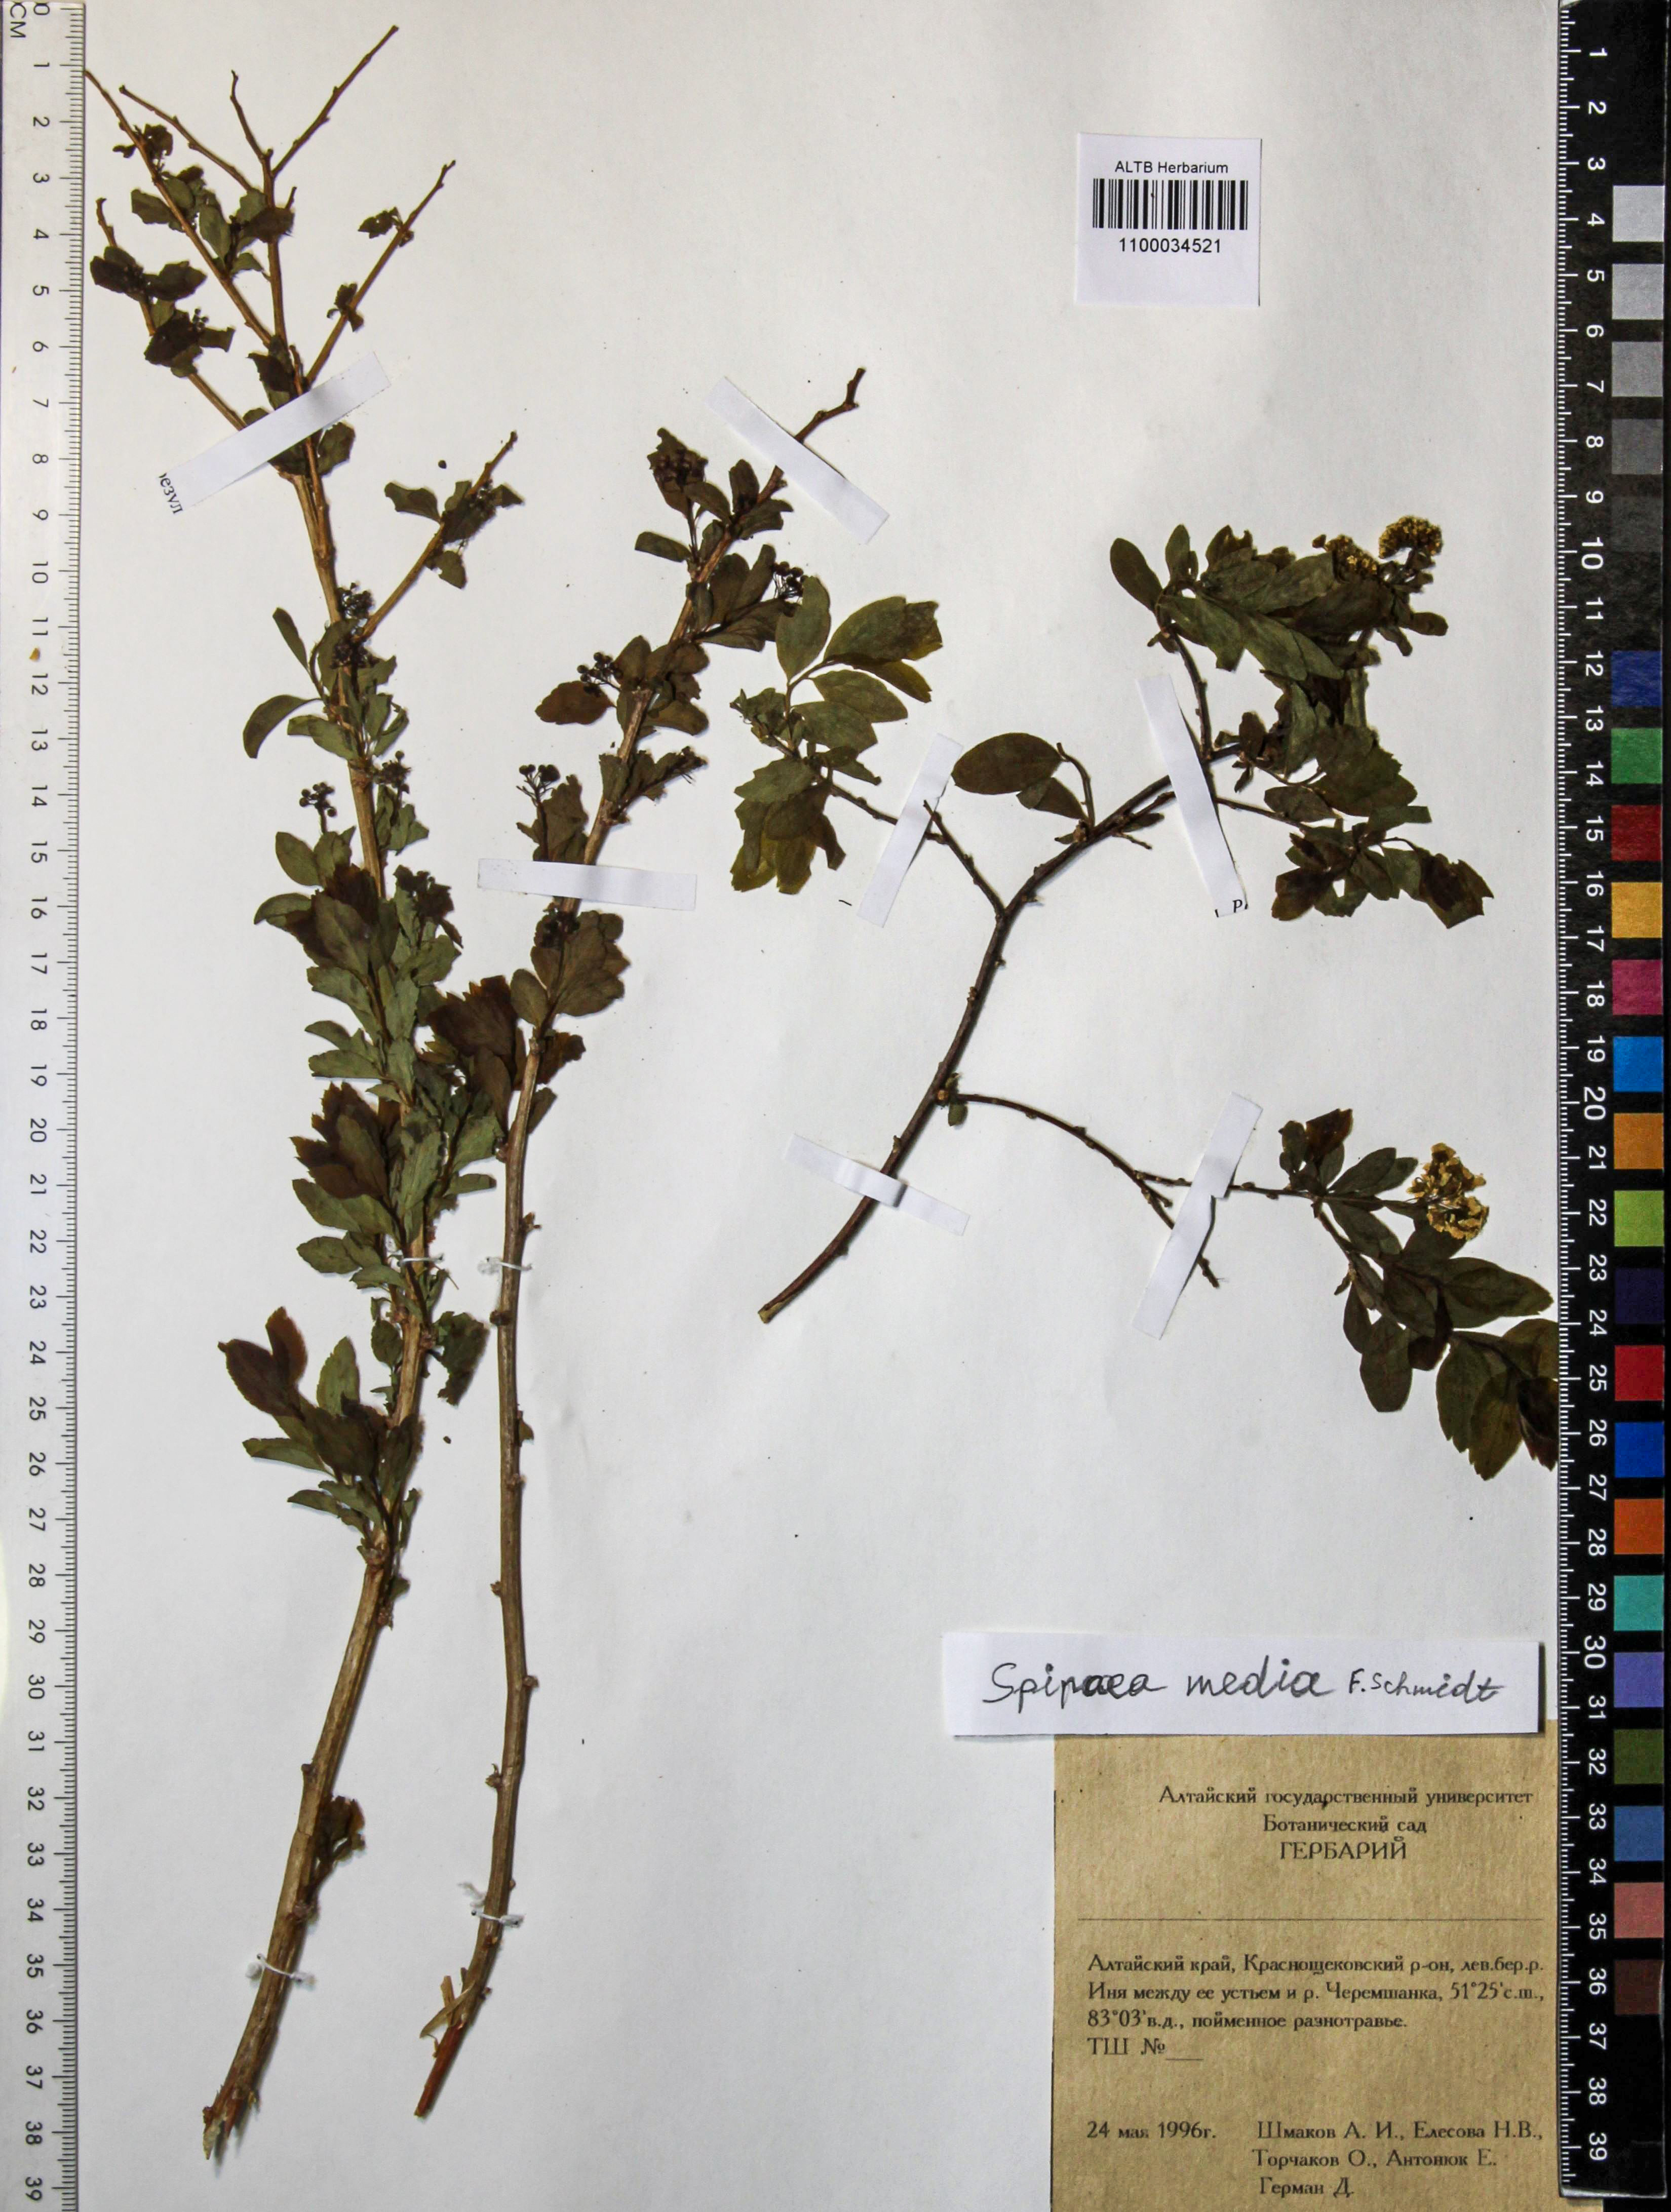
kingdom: Plantae
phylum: Tracheophyta
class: Magnoliopsida
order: Rosales
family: Rosaceae
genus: Spiraea
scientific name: Spiraea media
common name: Russian spiraea
